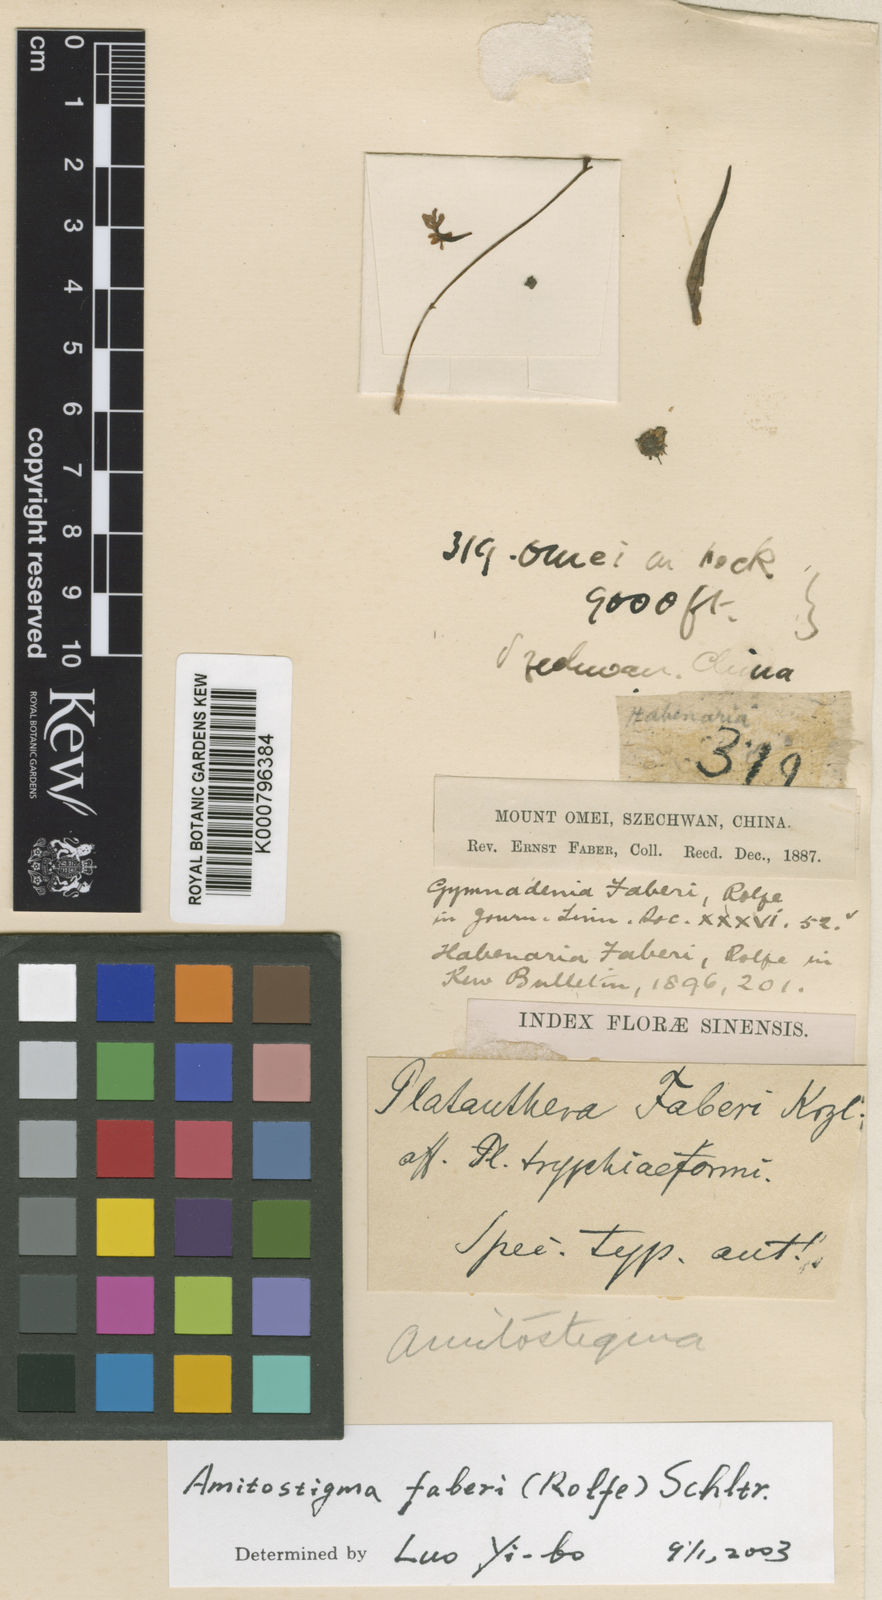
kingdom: Plantae
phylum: Tracheophyta
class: Liliopsida
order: Asparagales
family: Orchidaceae
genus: Hemipilia
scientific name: Hemipilia
